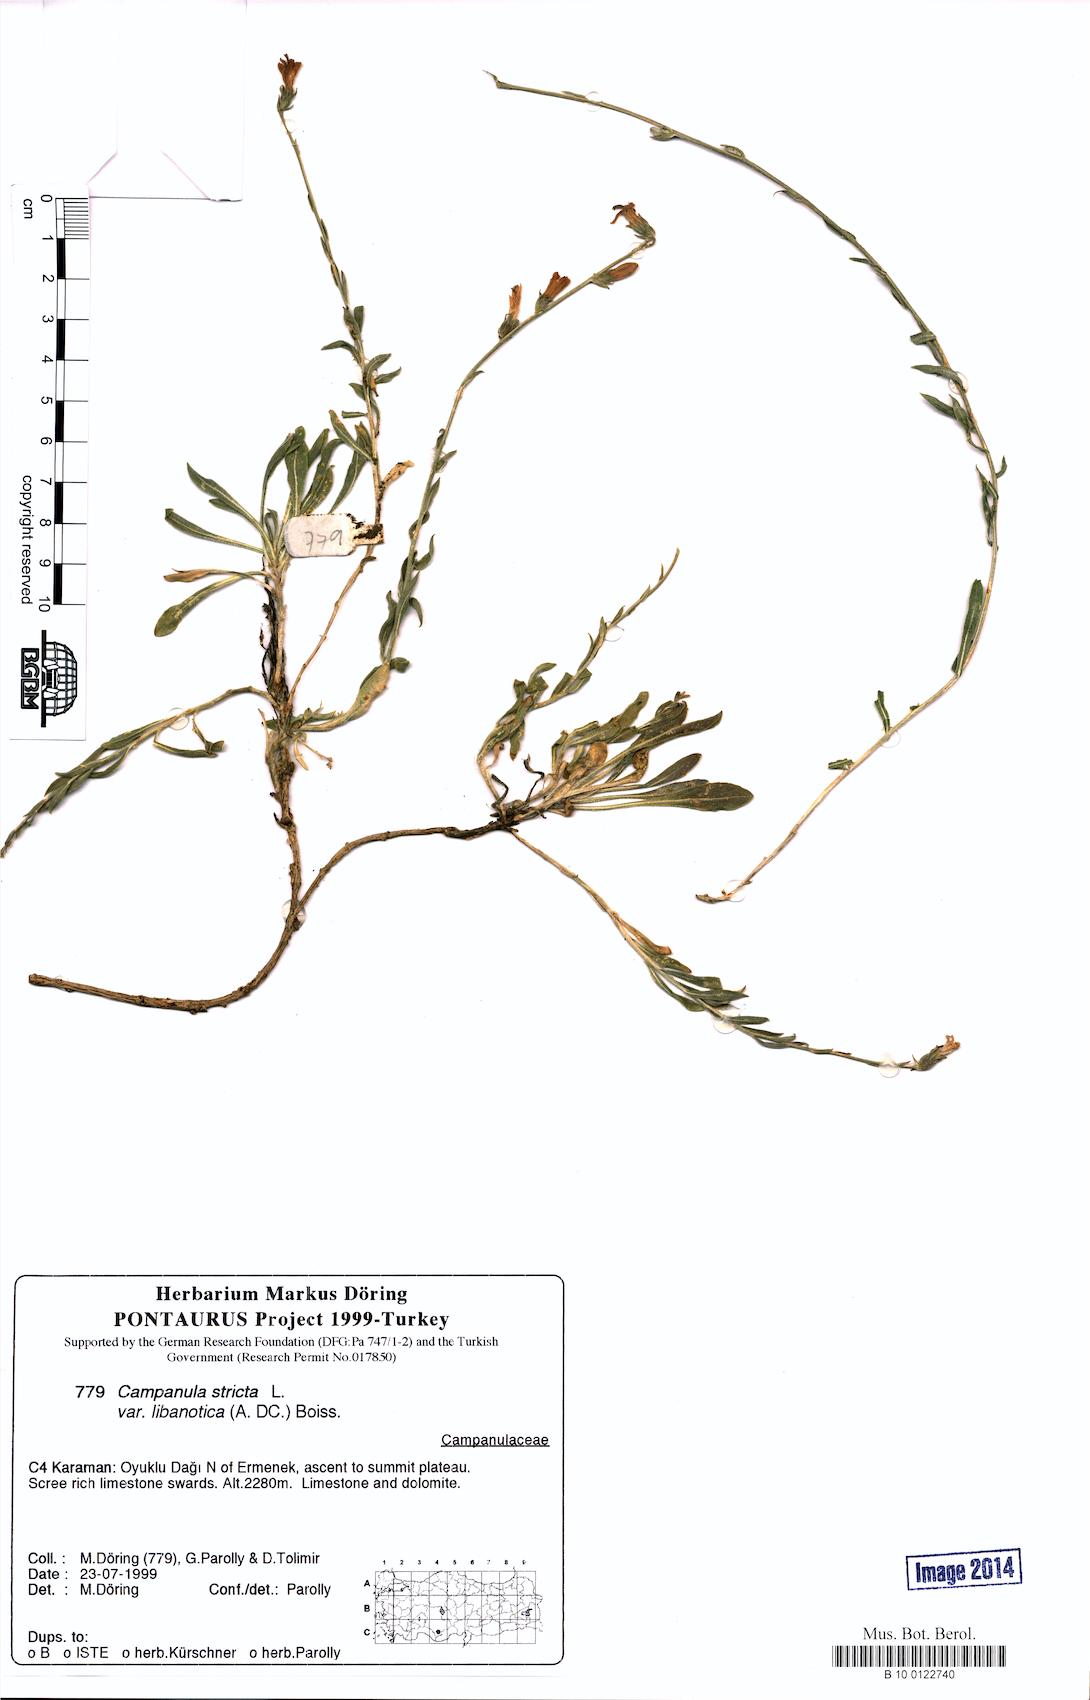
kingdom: Plantae
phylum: Tracheophyta
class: Magnoliopsida
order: Asterales
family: Campanulaceae
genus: Campanula
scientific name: Campanula stricta
